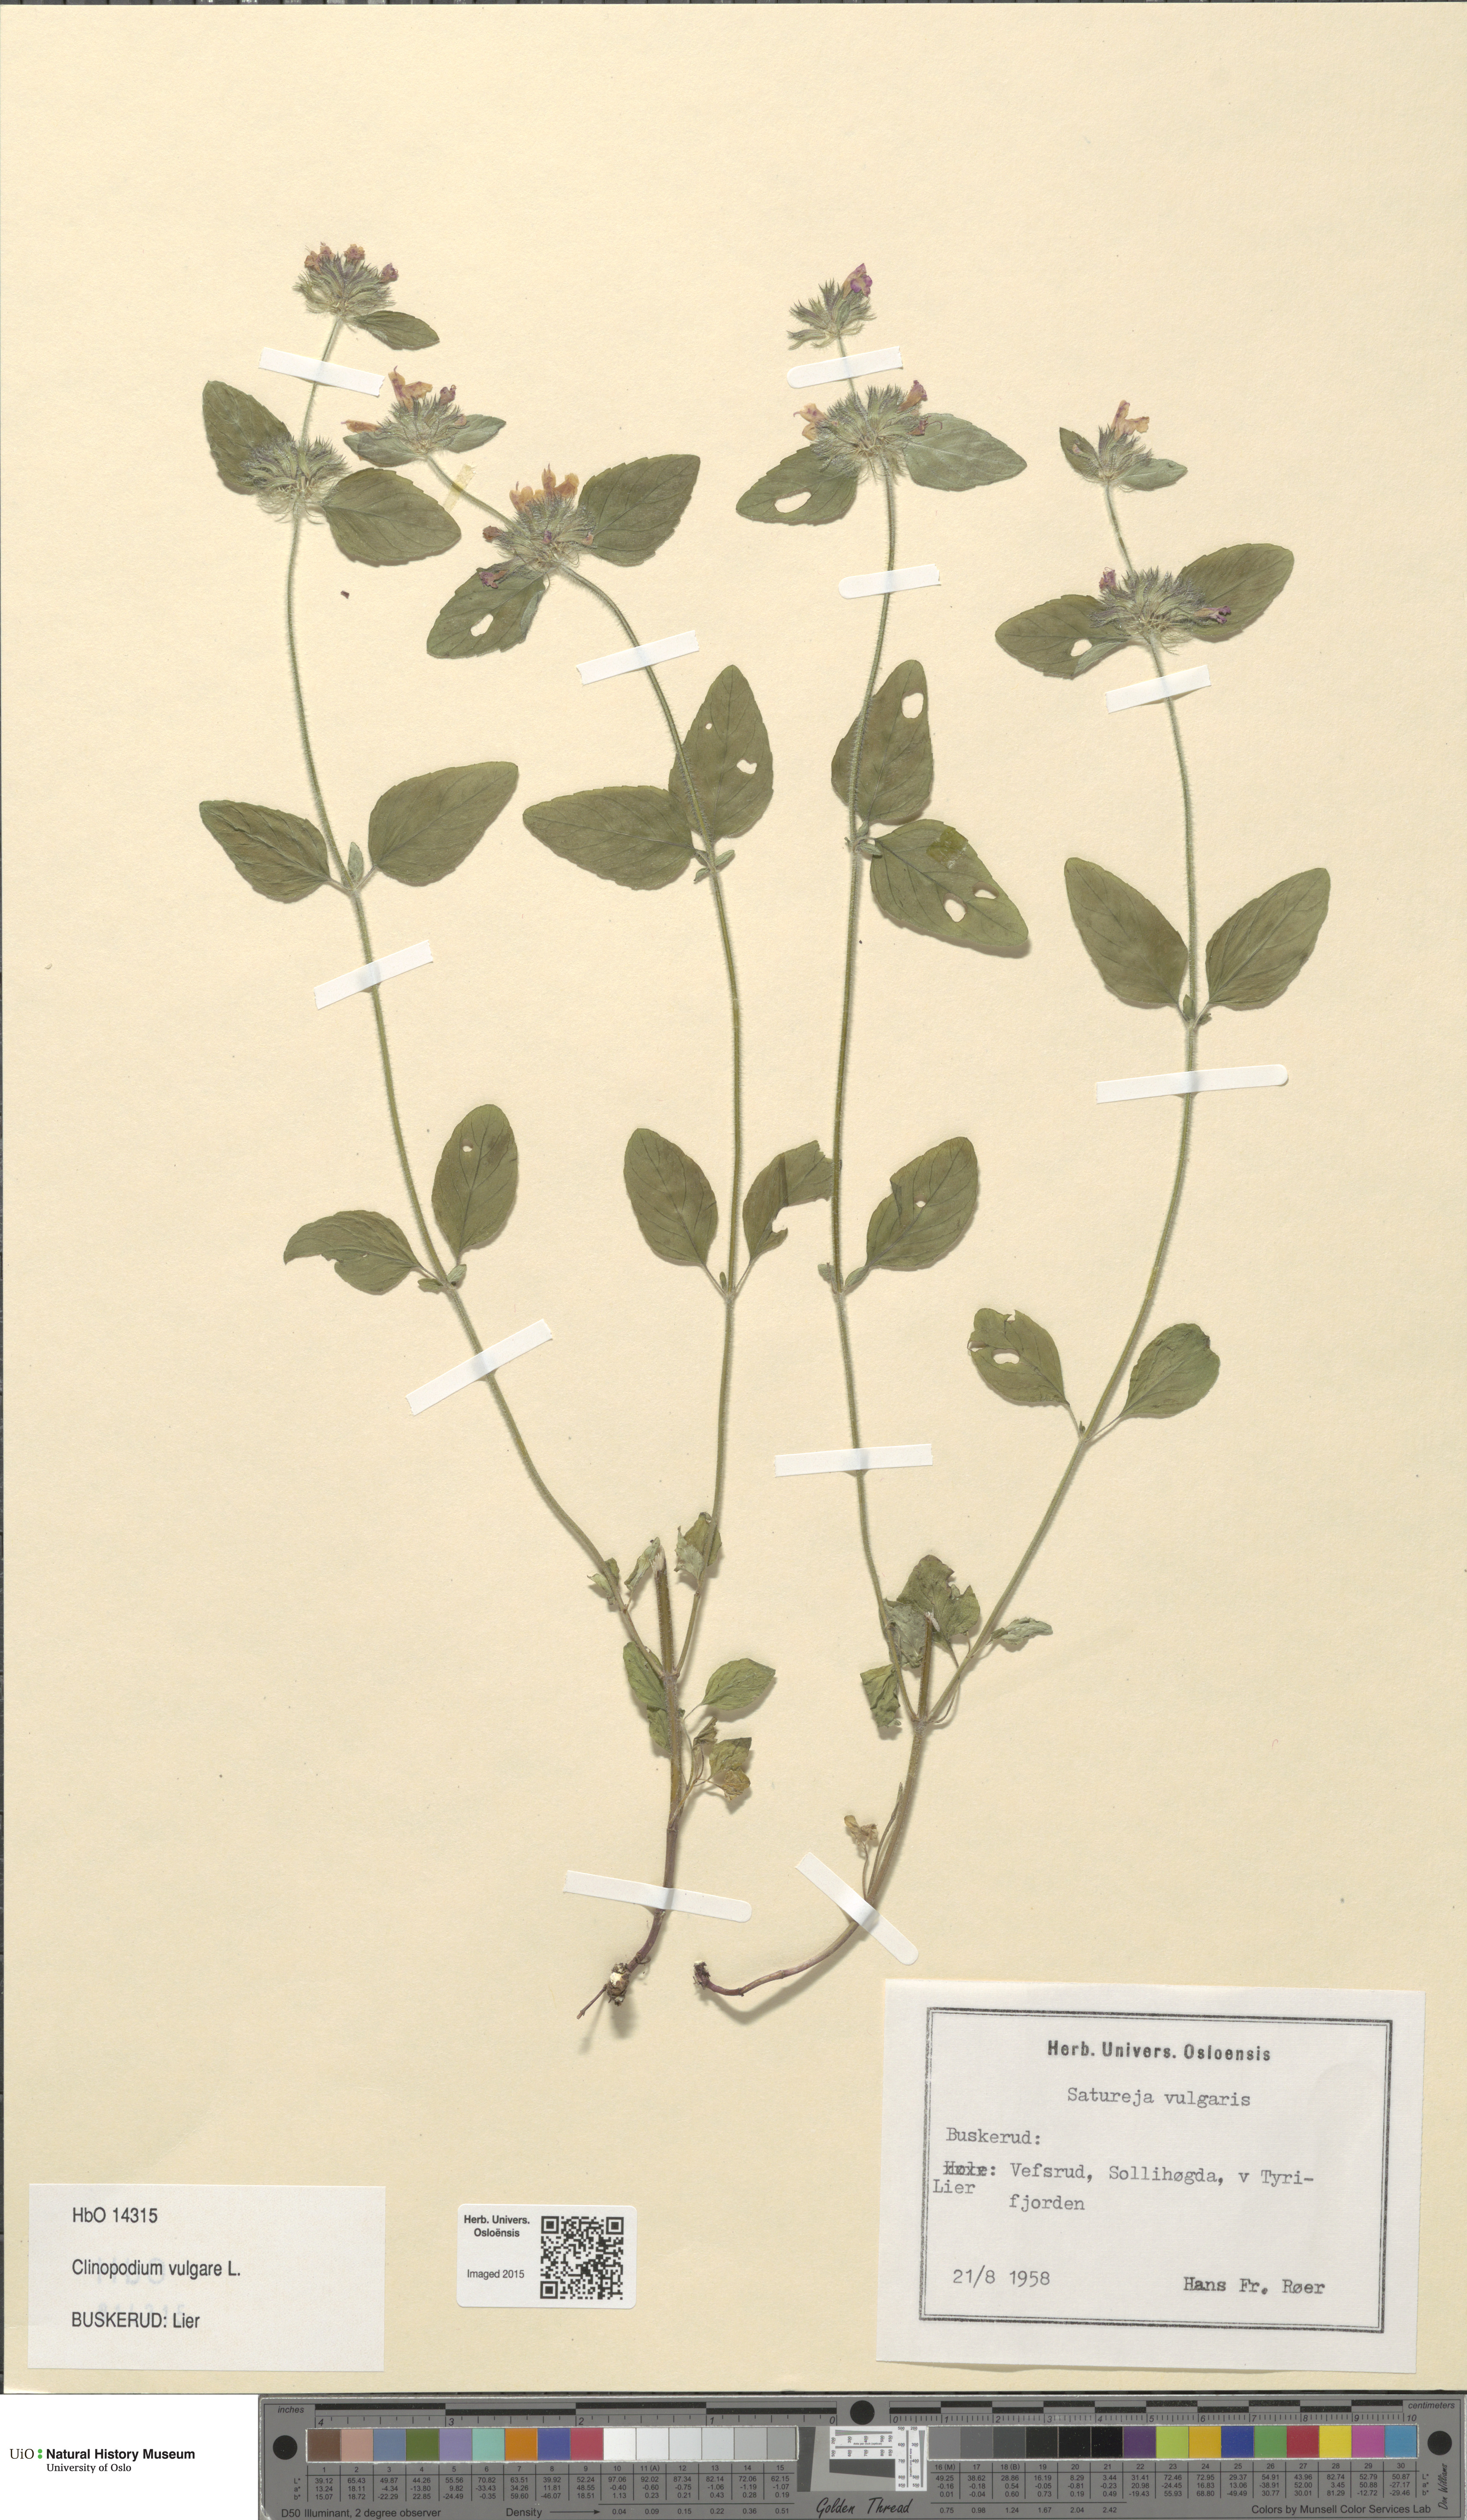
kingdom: Plantae
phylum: Tracheophyta
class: Magnoliopsida
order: Lamiales
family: Lamiaceae
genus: Clinopodium
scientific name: Clinopodium vulgare
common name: Wild basil
